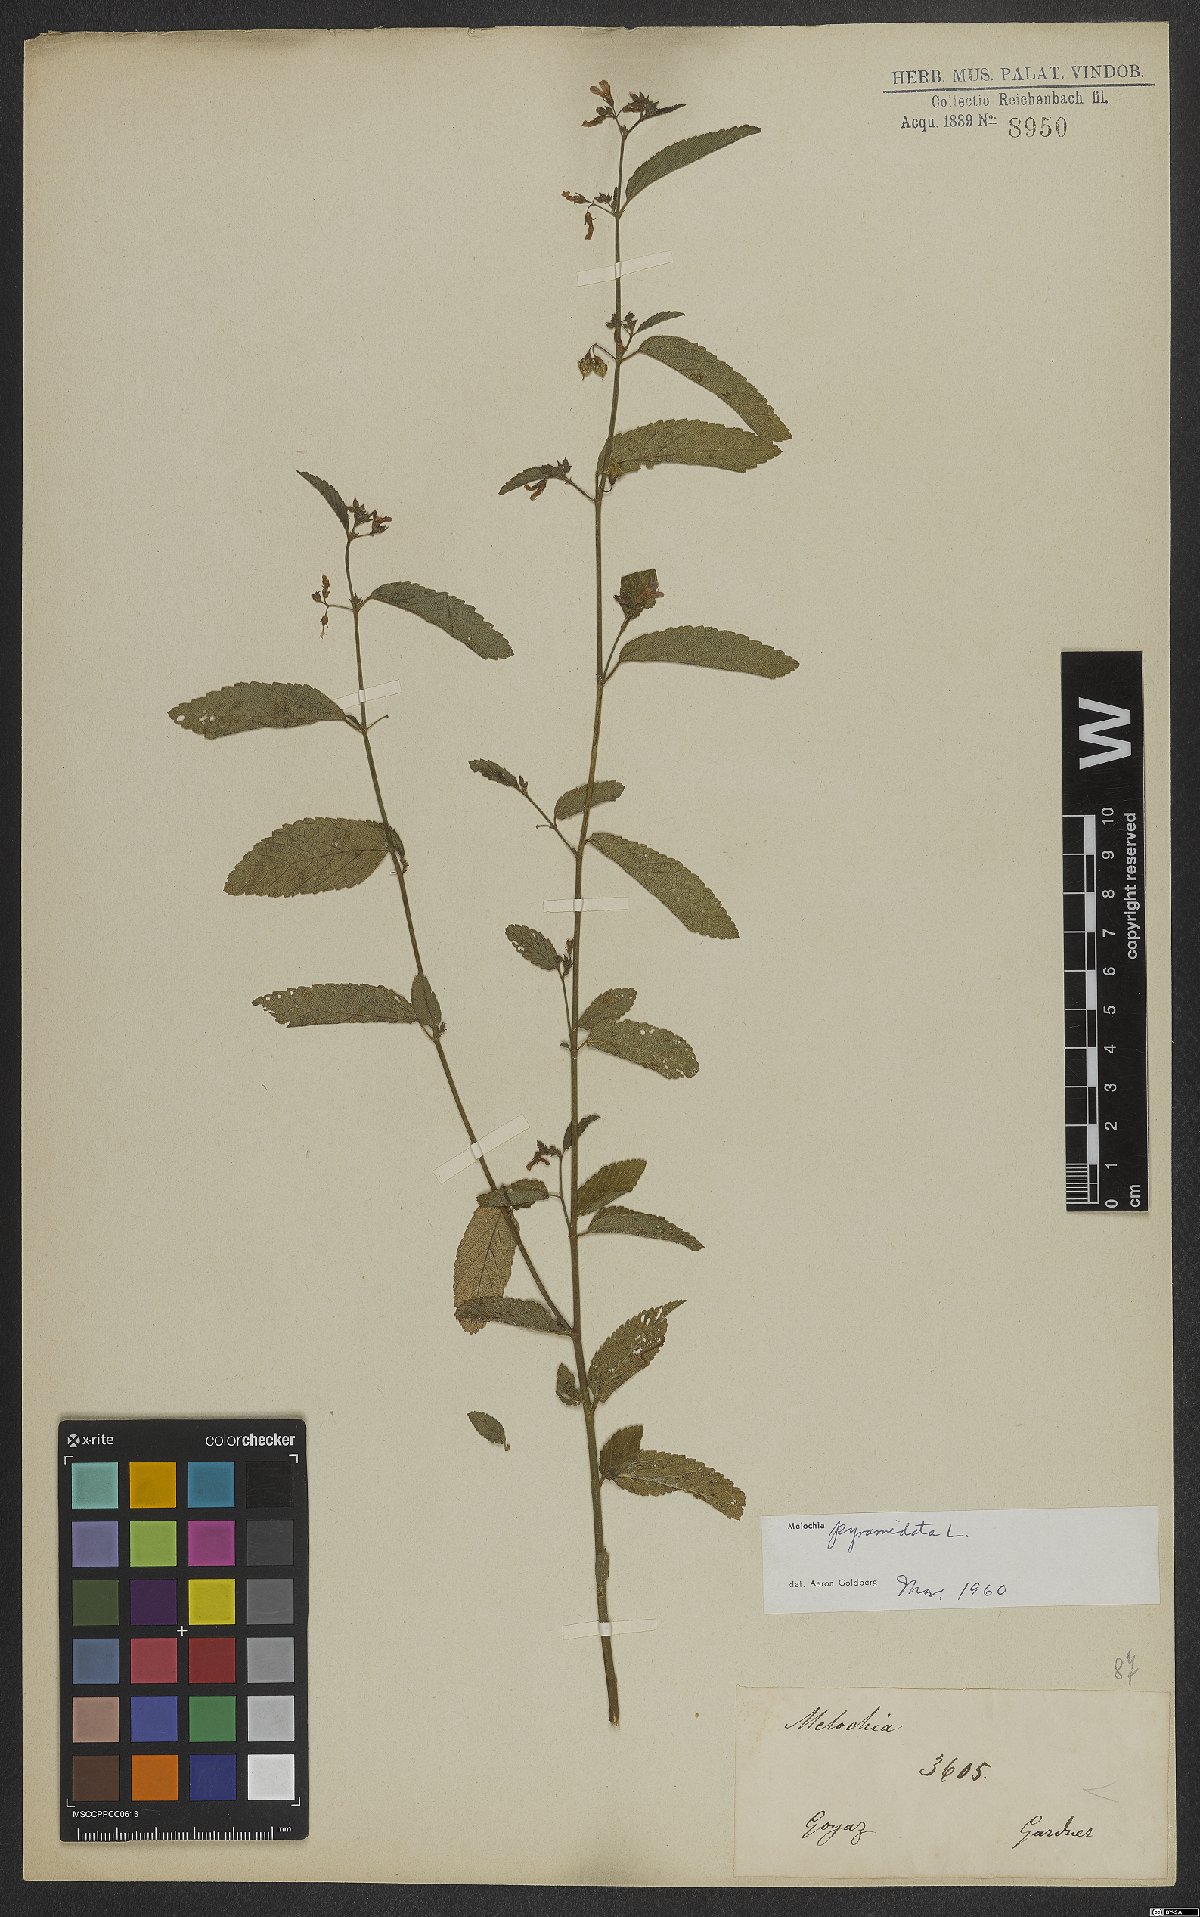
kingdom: Plantae
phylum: Tracheophyta
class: Magnoliopsida
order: Malvales
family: Malvaceae
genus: Melochia
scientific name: Melochia pyramidata
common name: Pyramidflower
